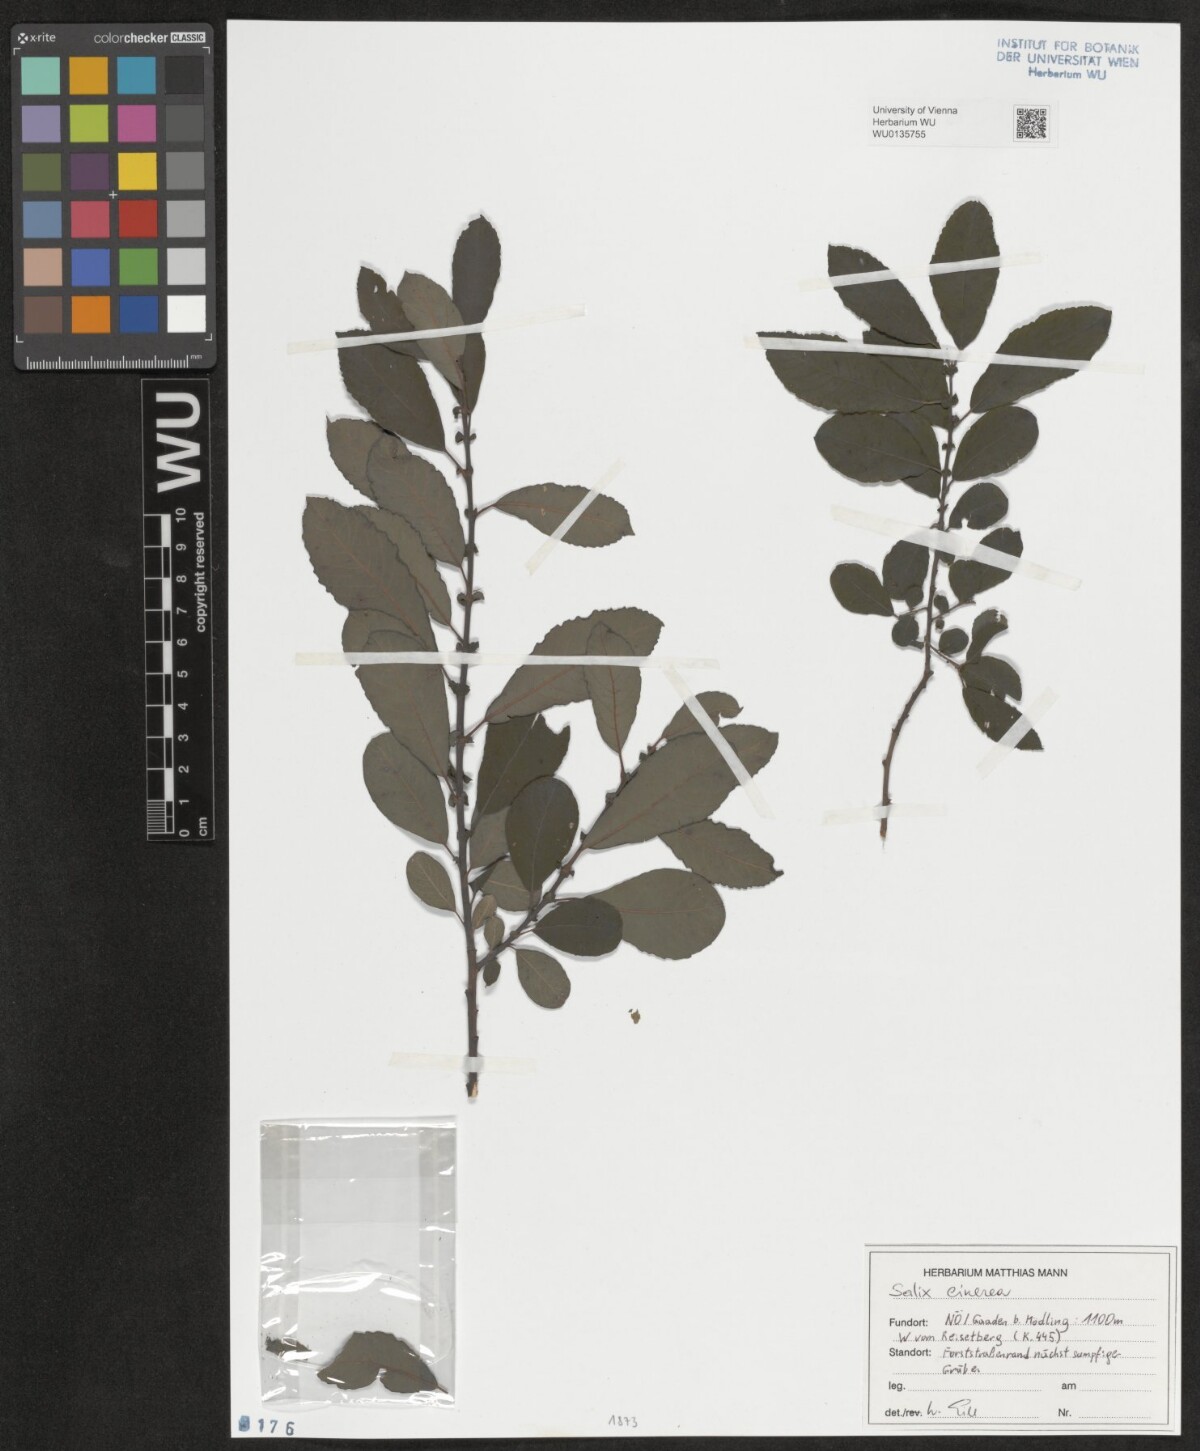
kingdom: Plantae
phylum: Tracheophyta
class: Magnoliopsida
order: Malpighiales
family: Salicaceae
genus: Salix
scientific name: Salix cinerea
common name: Common sallow
